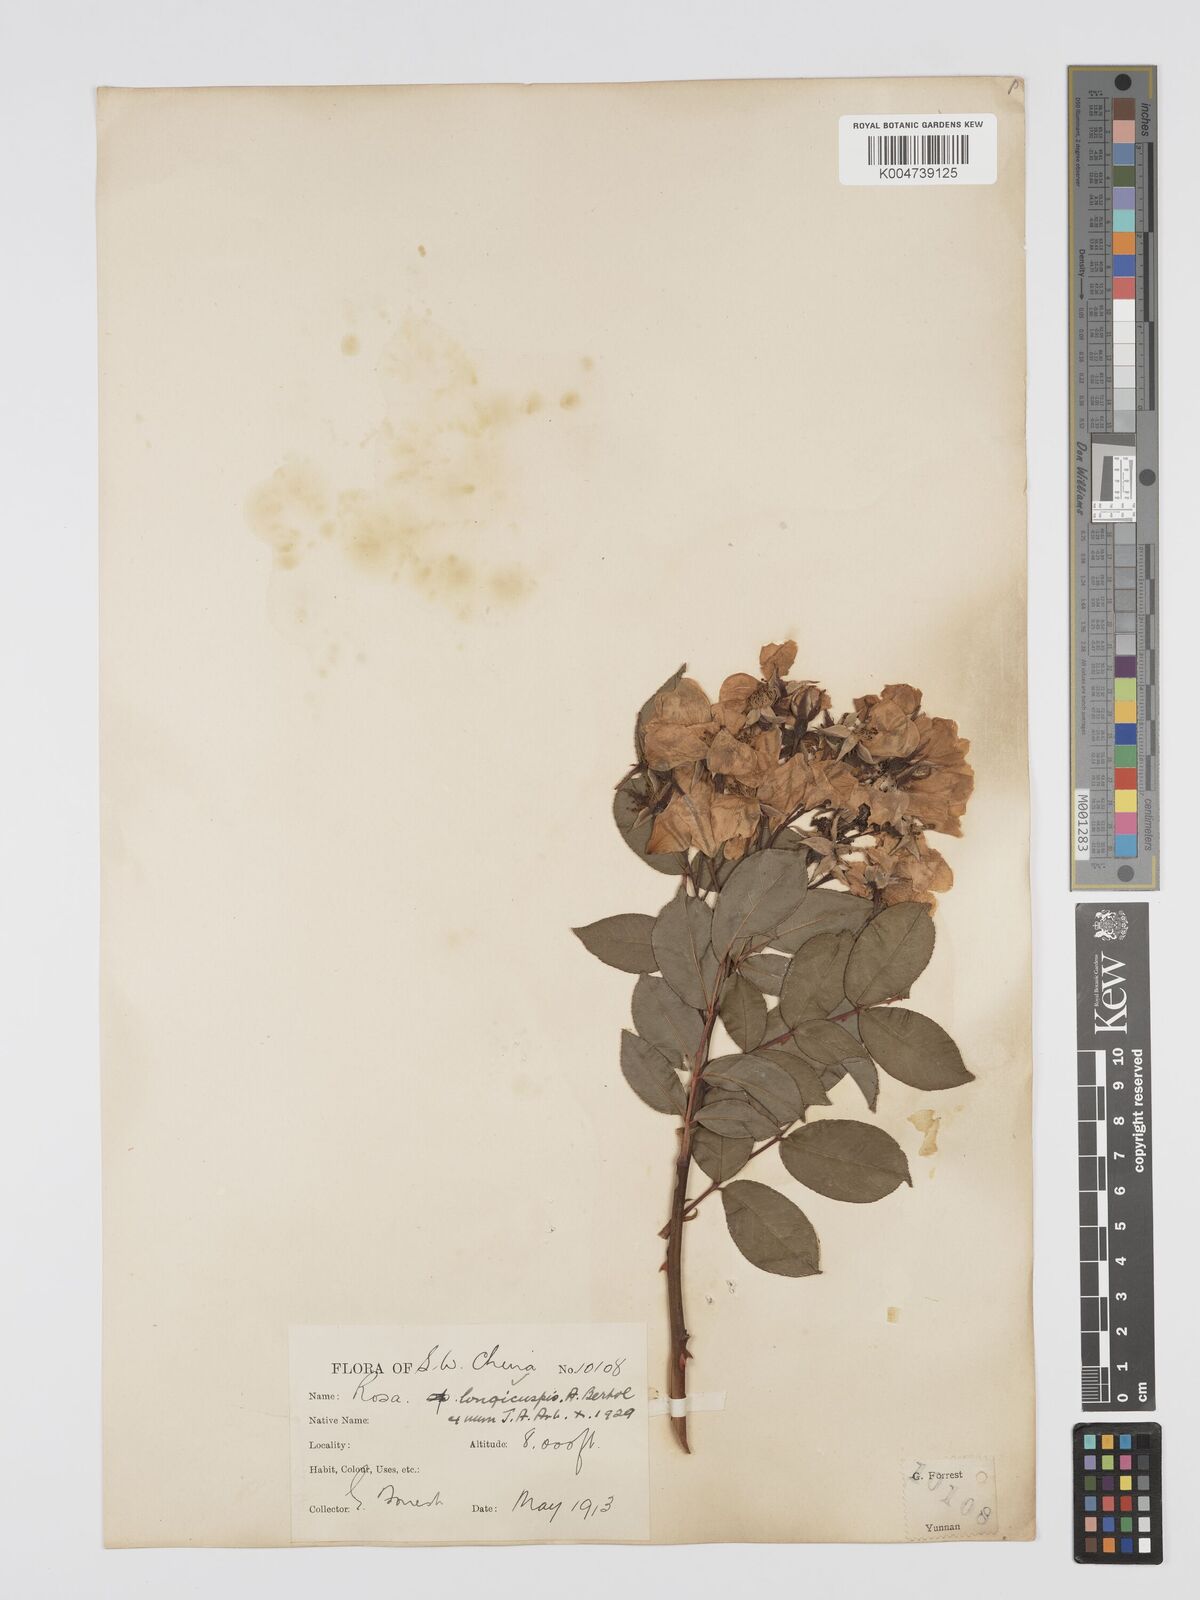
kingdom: Plantae
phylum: Tracheophyta
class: Magnoliopsida
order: Rosales
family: Rosaceae
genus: Rosa
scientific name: Rosa longicuspis
